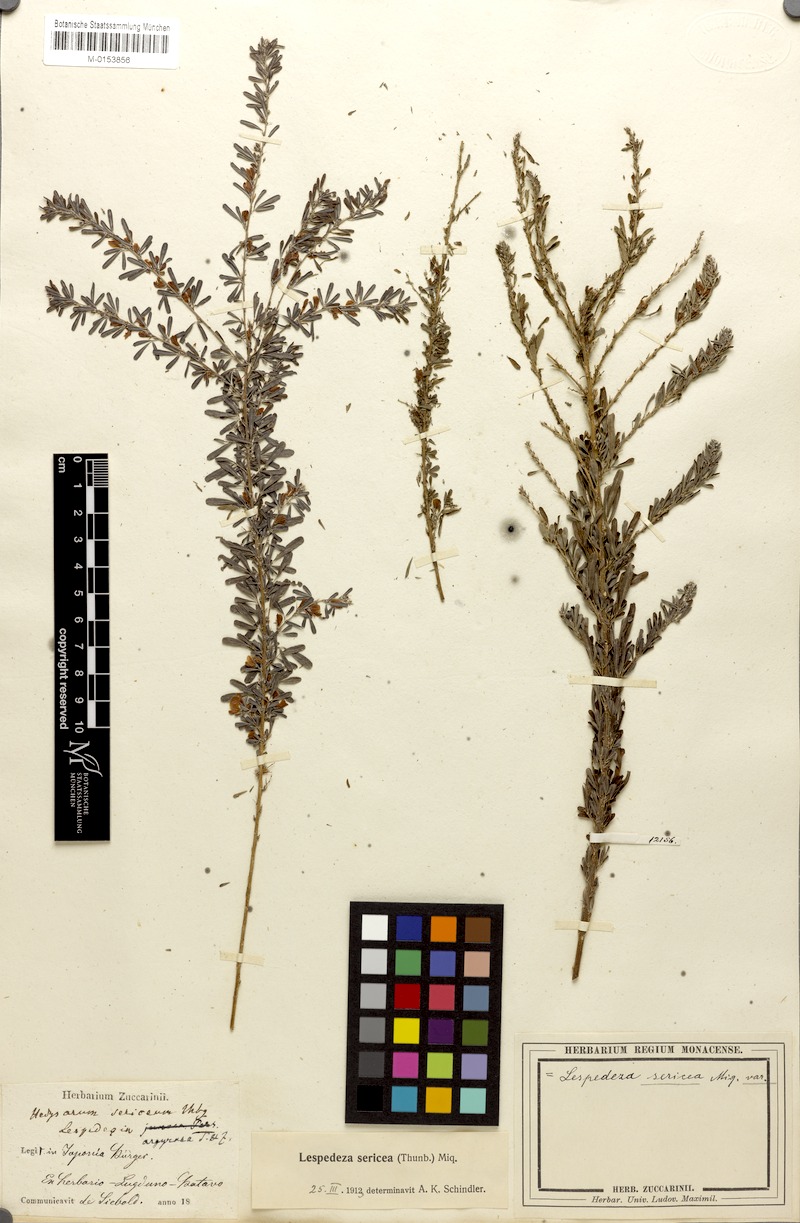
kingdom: Plantae
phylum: Tracheophyta
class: Magnoliopsida
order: Fabales
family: Fabaceae
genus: Lespedeza
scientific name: Lespedeza cuneata
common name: Chinese bush-clover
